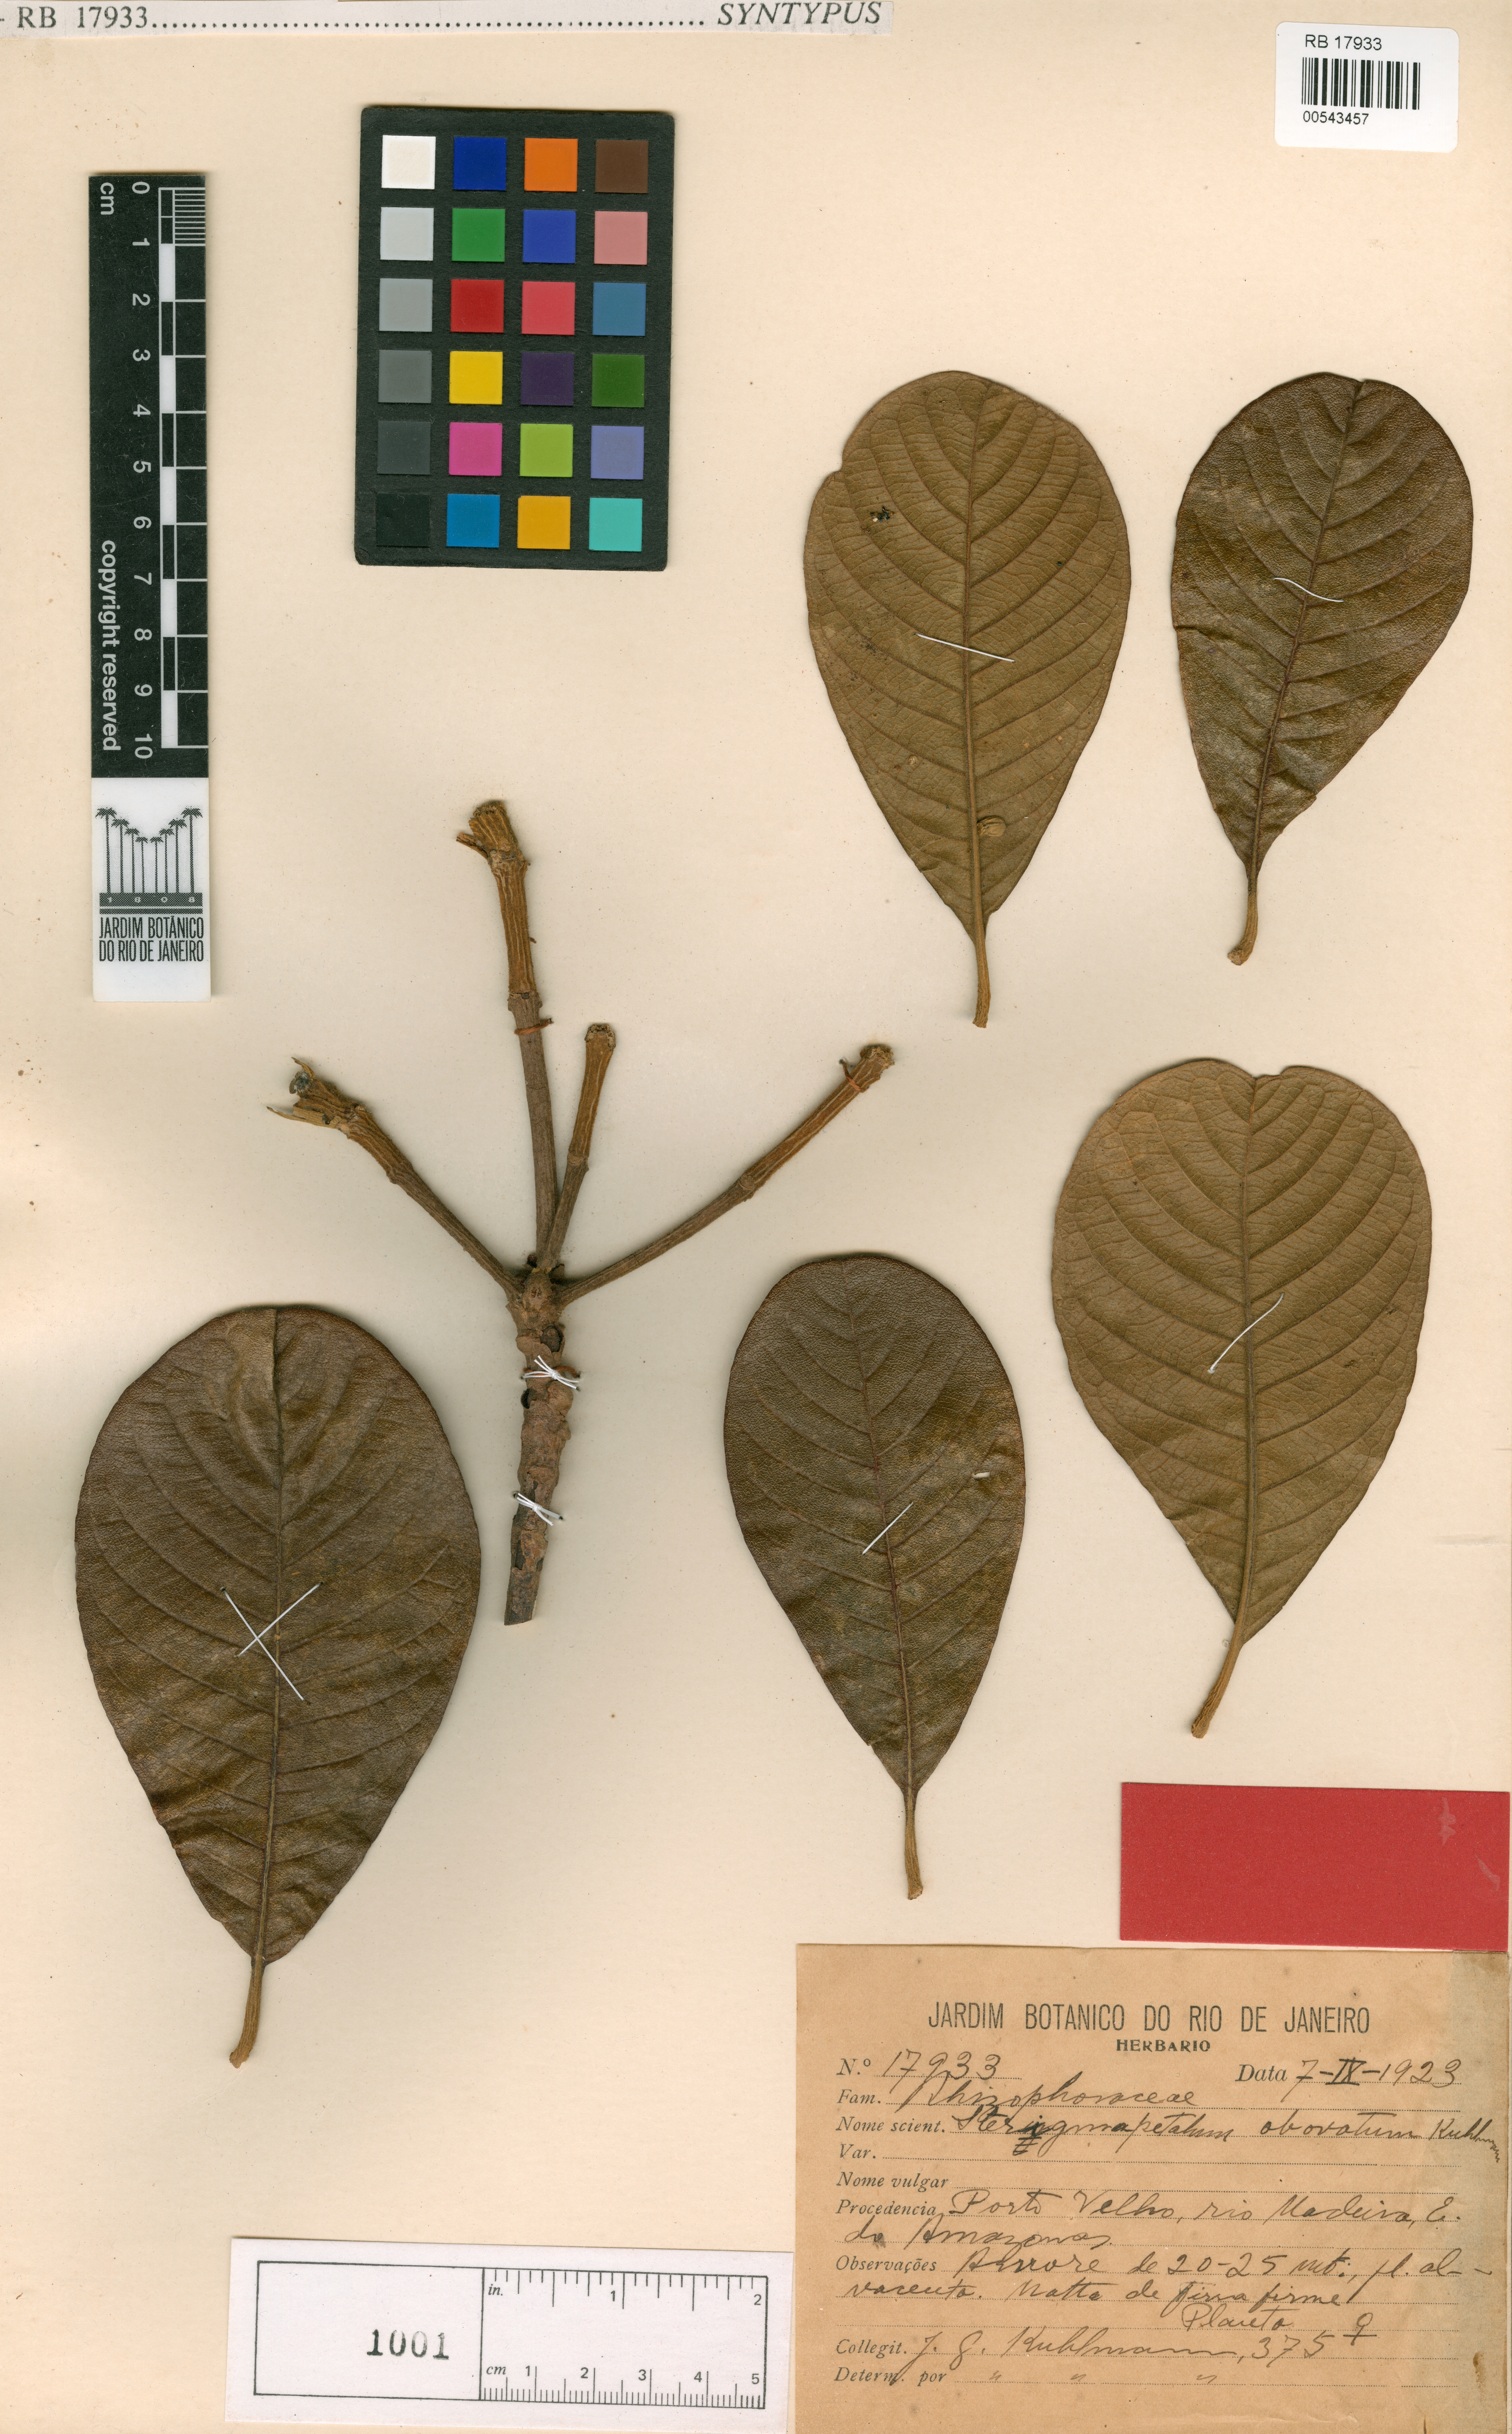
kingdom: Plantae
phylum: Tracheophyta
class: Magnoliopsida
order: Malpighiales
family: Rhizophoraceae
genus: Sterigmapetalum
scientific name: Sterigmapetalum obovatum
